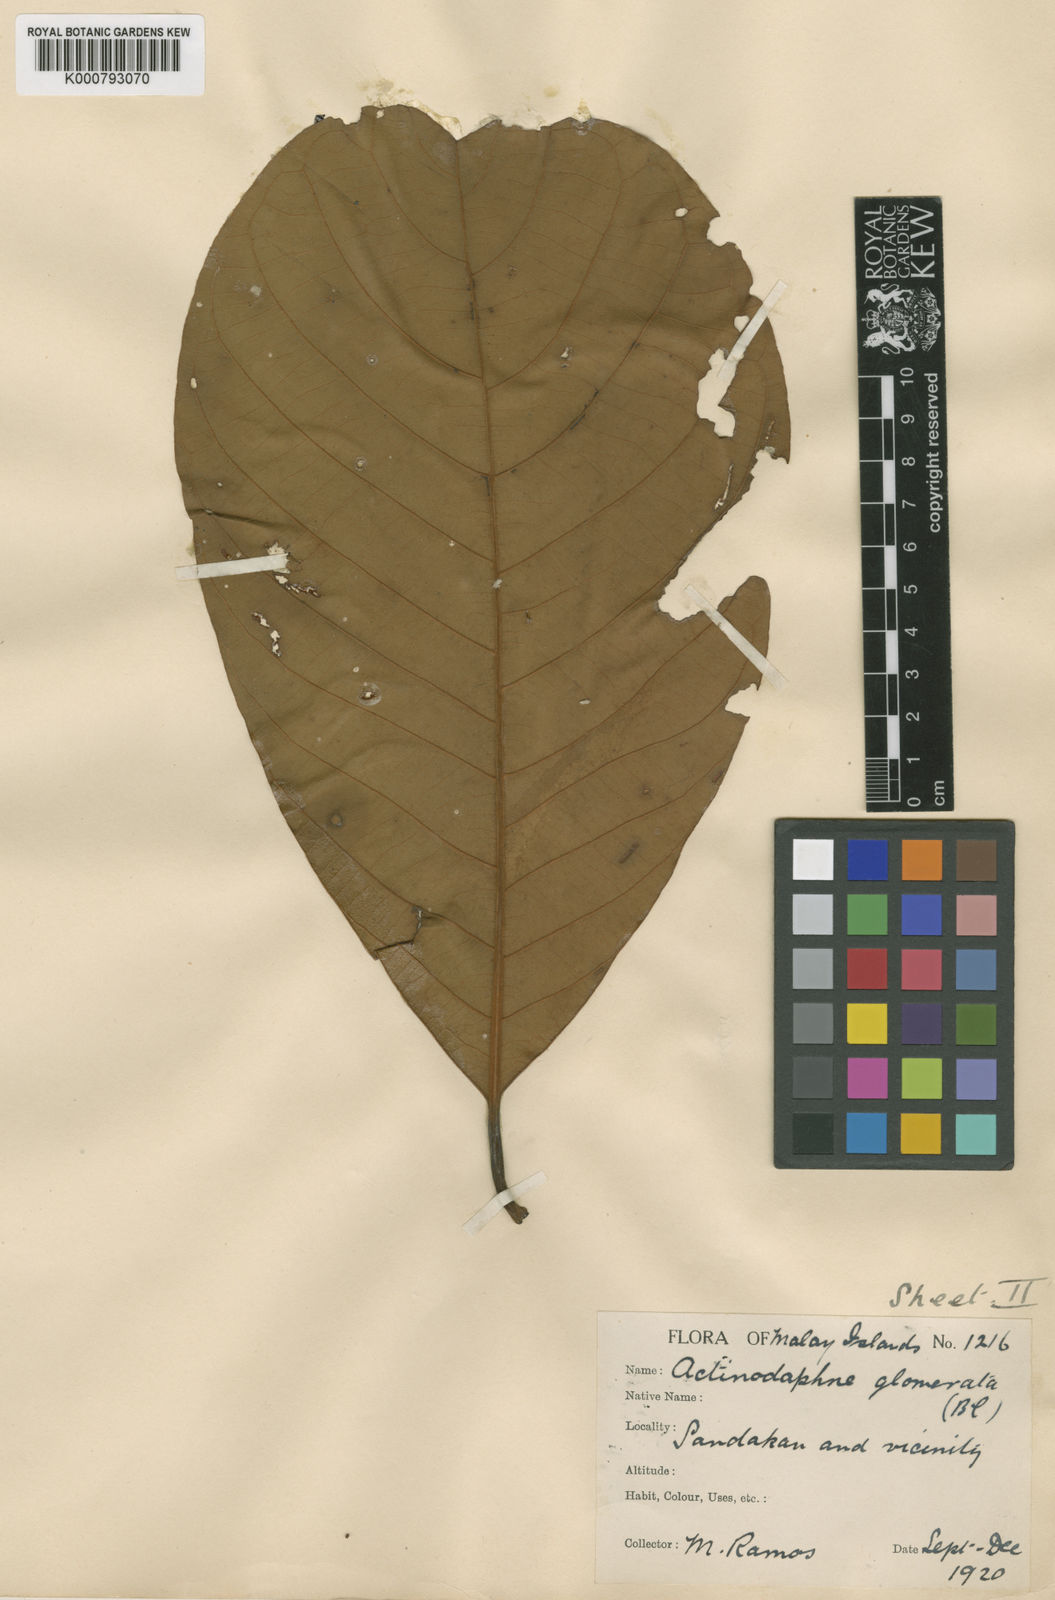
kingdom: Plantae
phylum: Tracheophyta
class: Magnoliopsida
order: Laurales
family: Lauraceae
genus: Actinodaphne
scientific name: Actinodaphne glomerata
